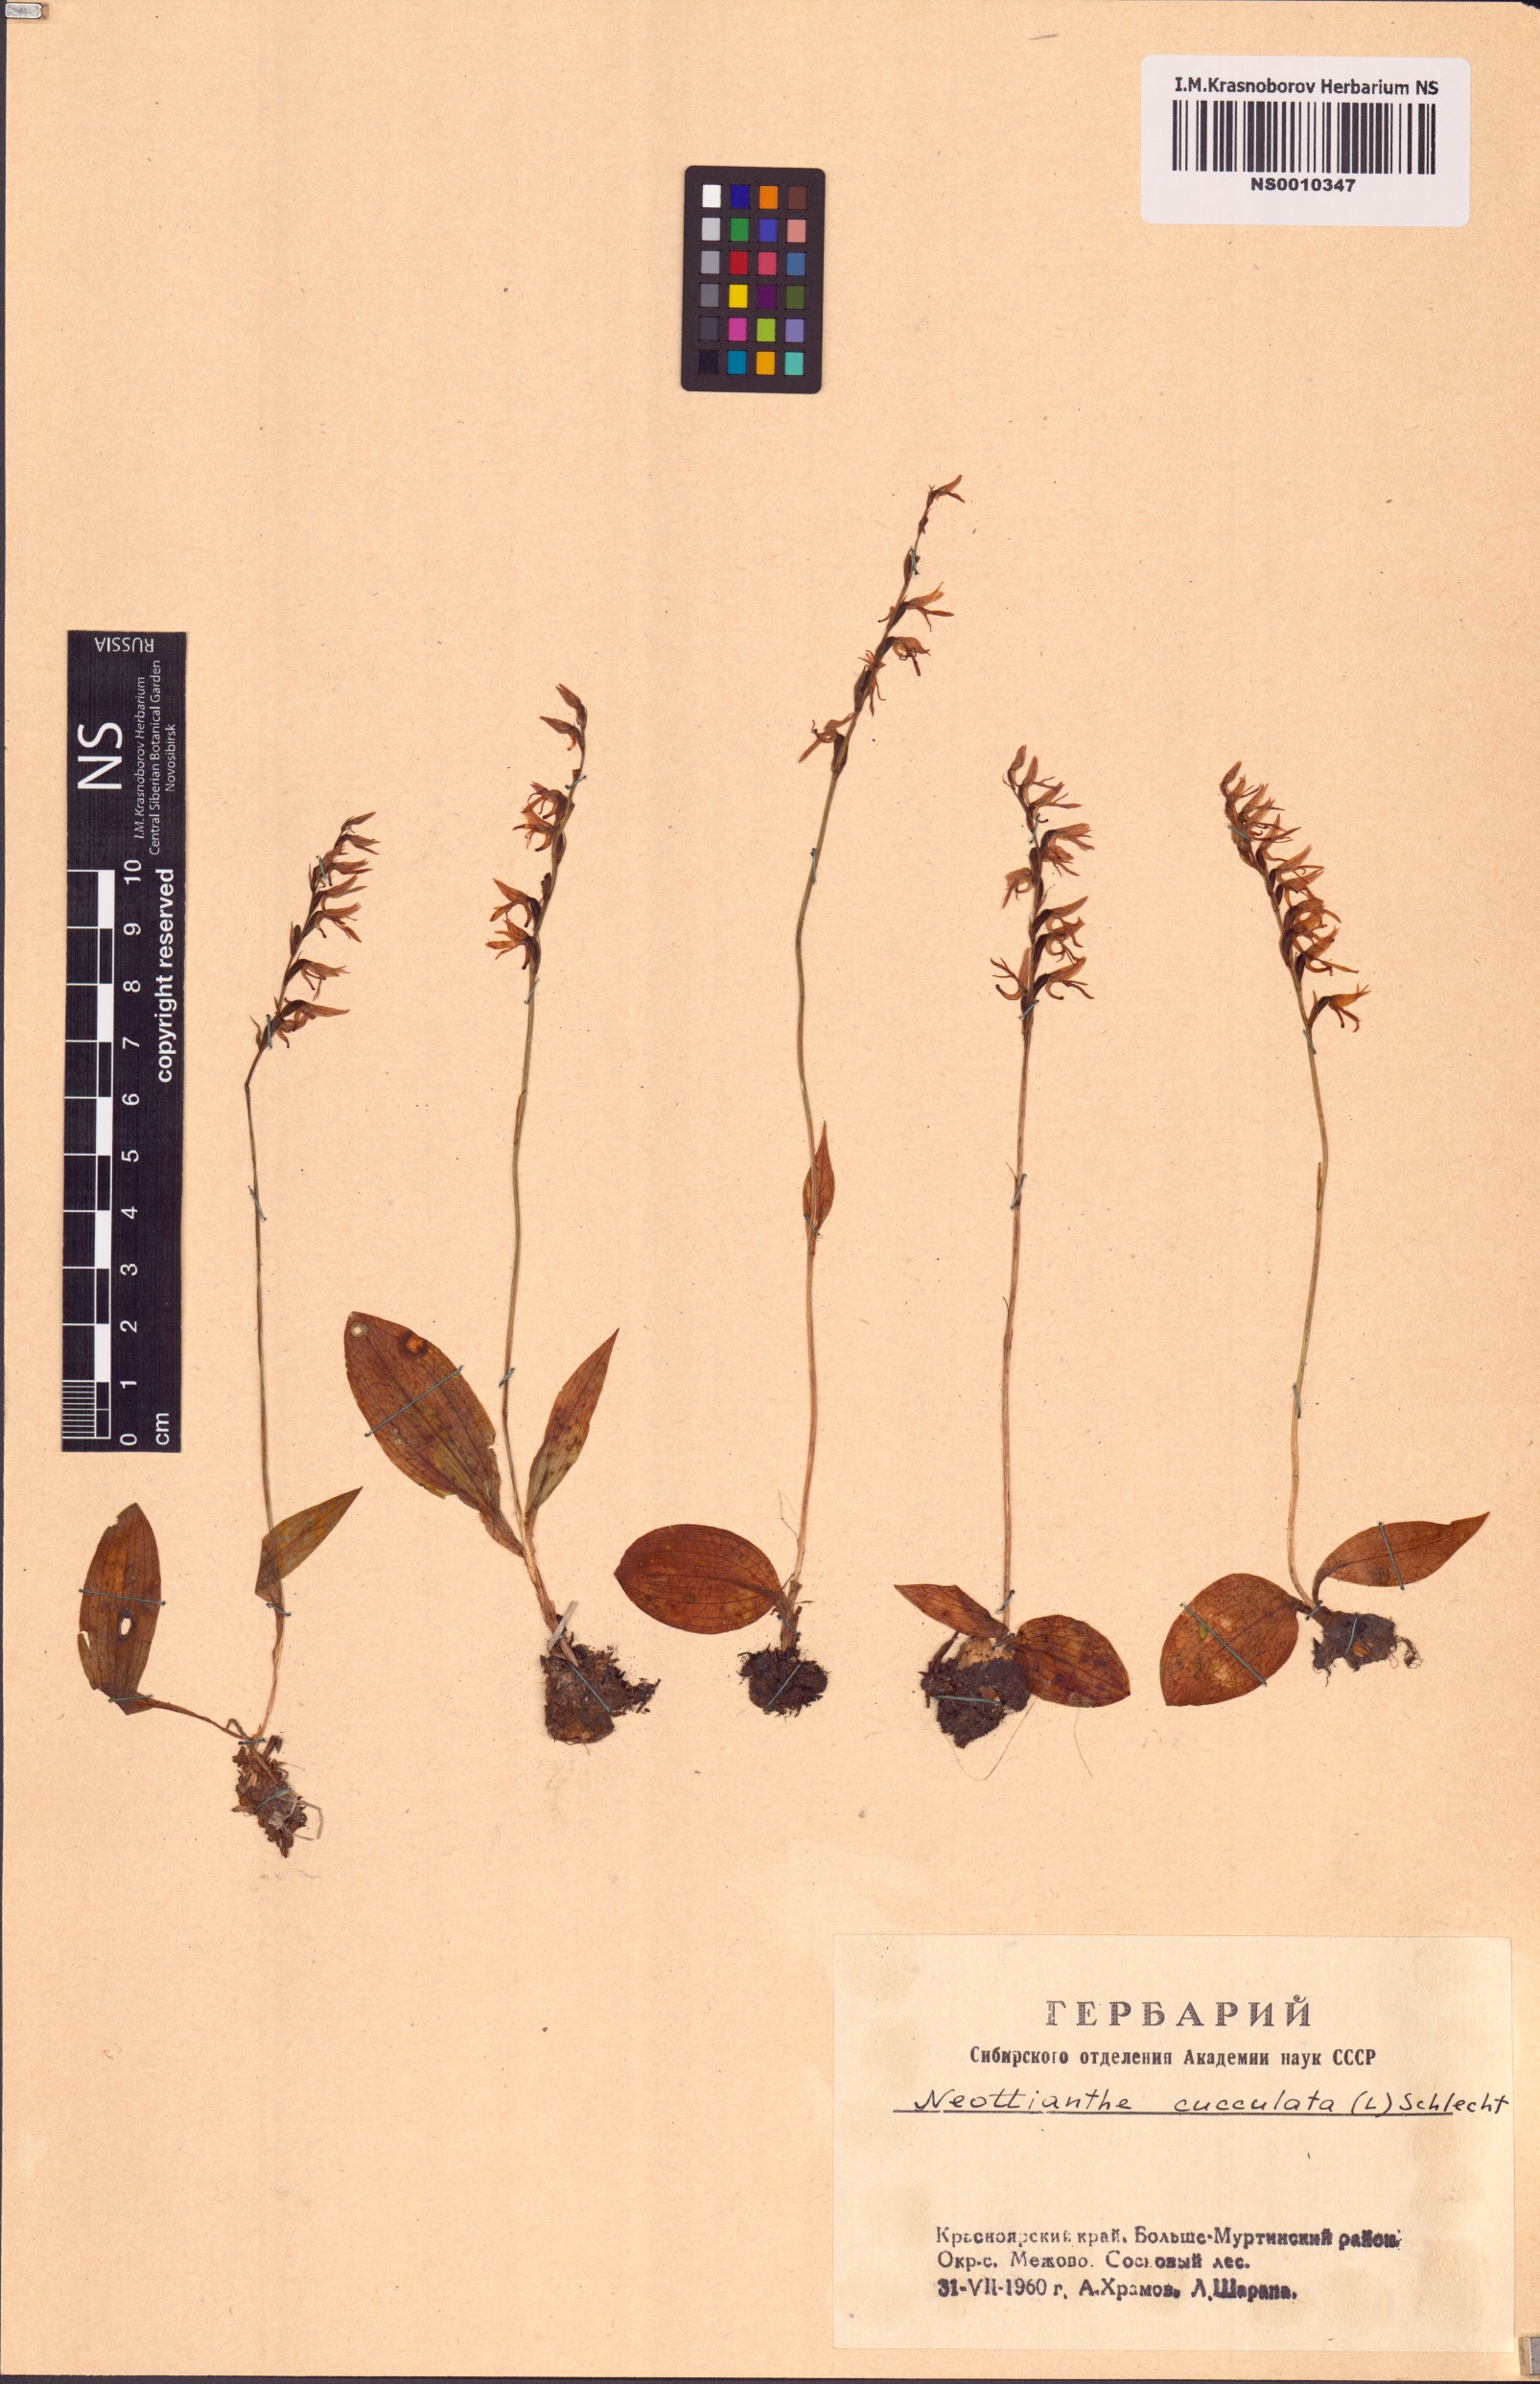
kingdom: Plantae
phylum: Tracheophyta
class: Liliopsida
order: Asparagales
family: Orchidaceae
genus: Hemipilia
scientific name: Hemipilia cucullata
